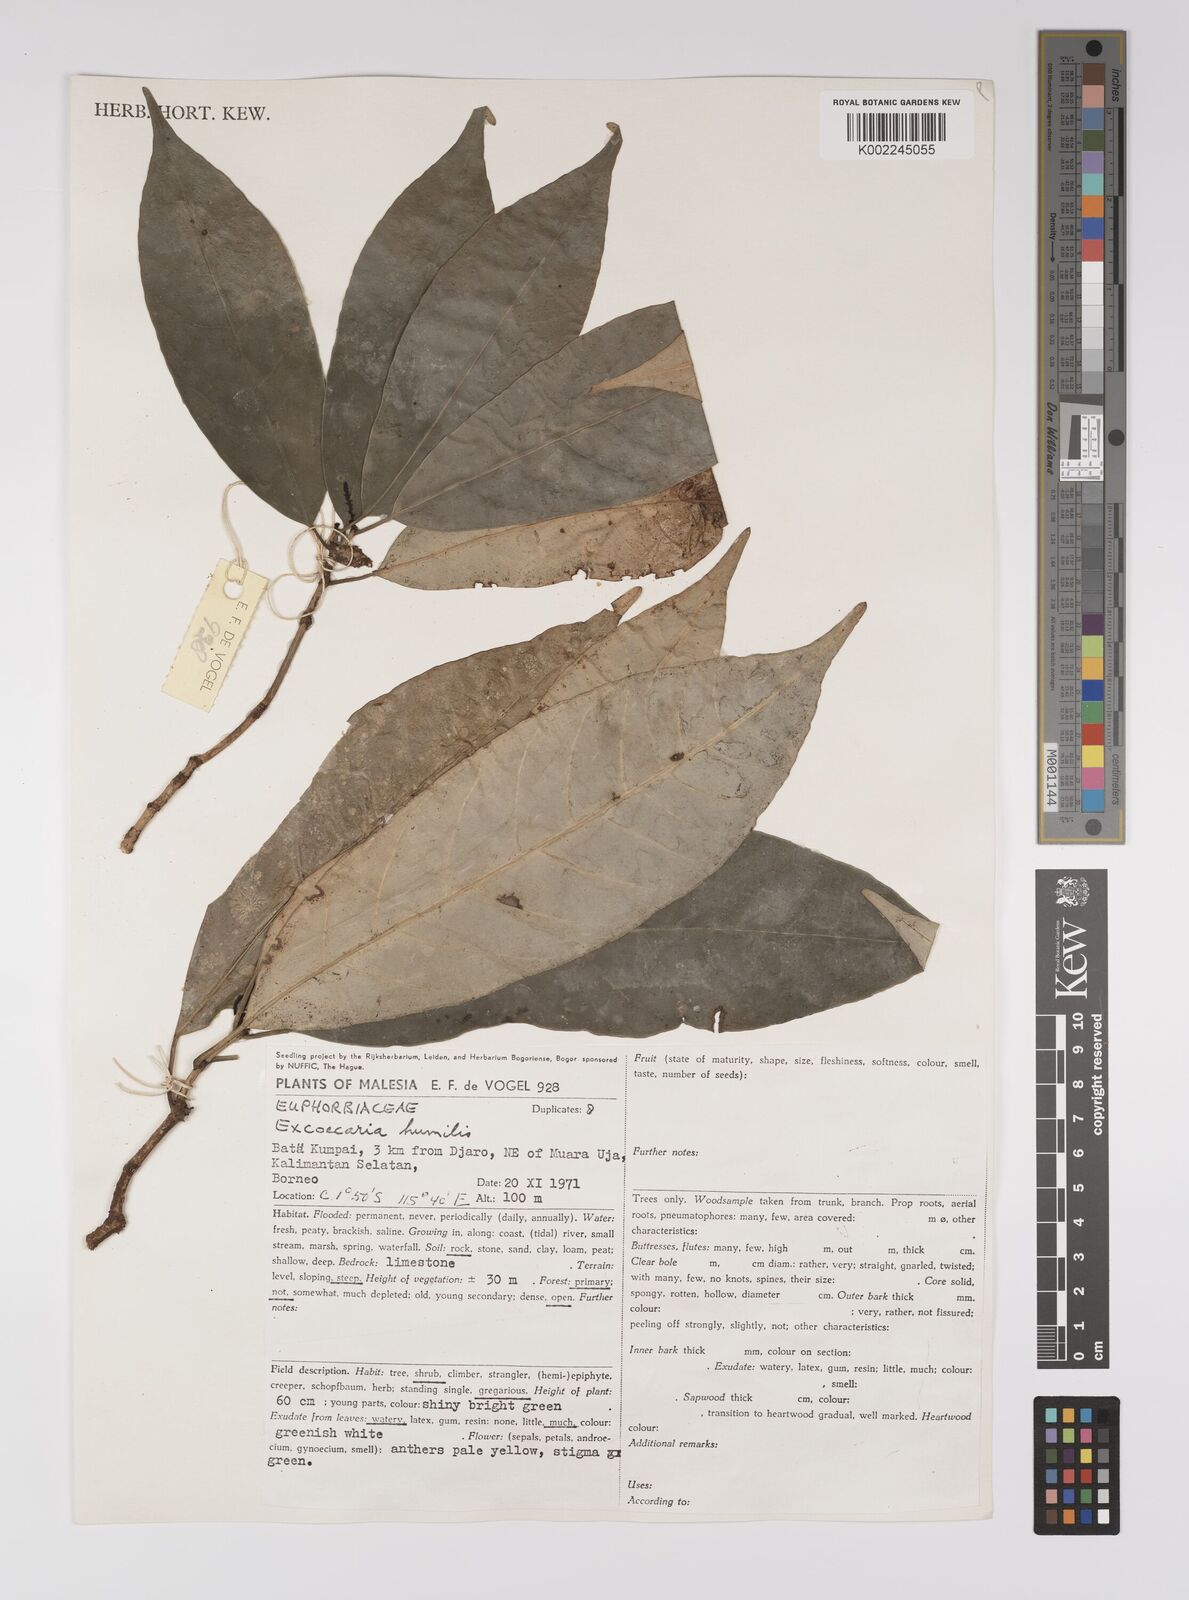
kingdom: Plantae
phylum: Tracheophyta
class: Magnoliopsida
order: Malpighiales
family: Euphorbiaceae
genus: Excoecaria
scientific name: Excoecaria borneensis
